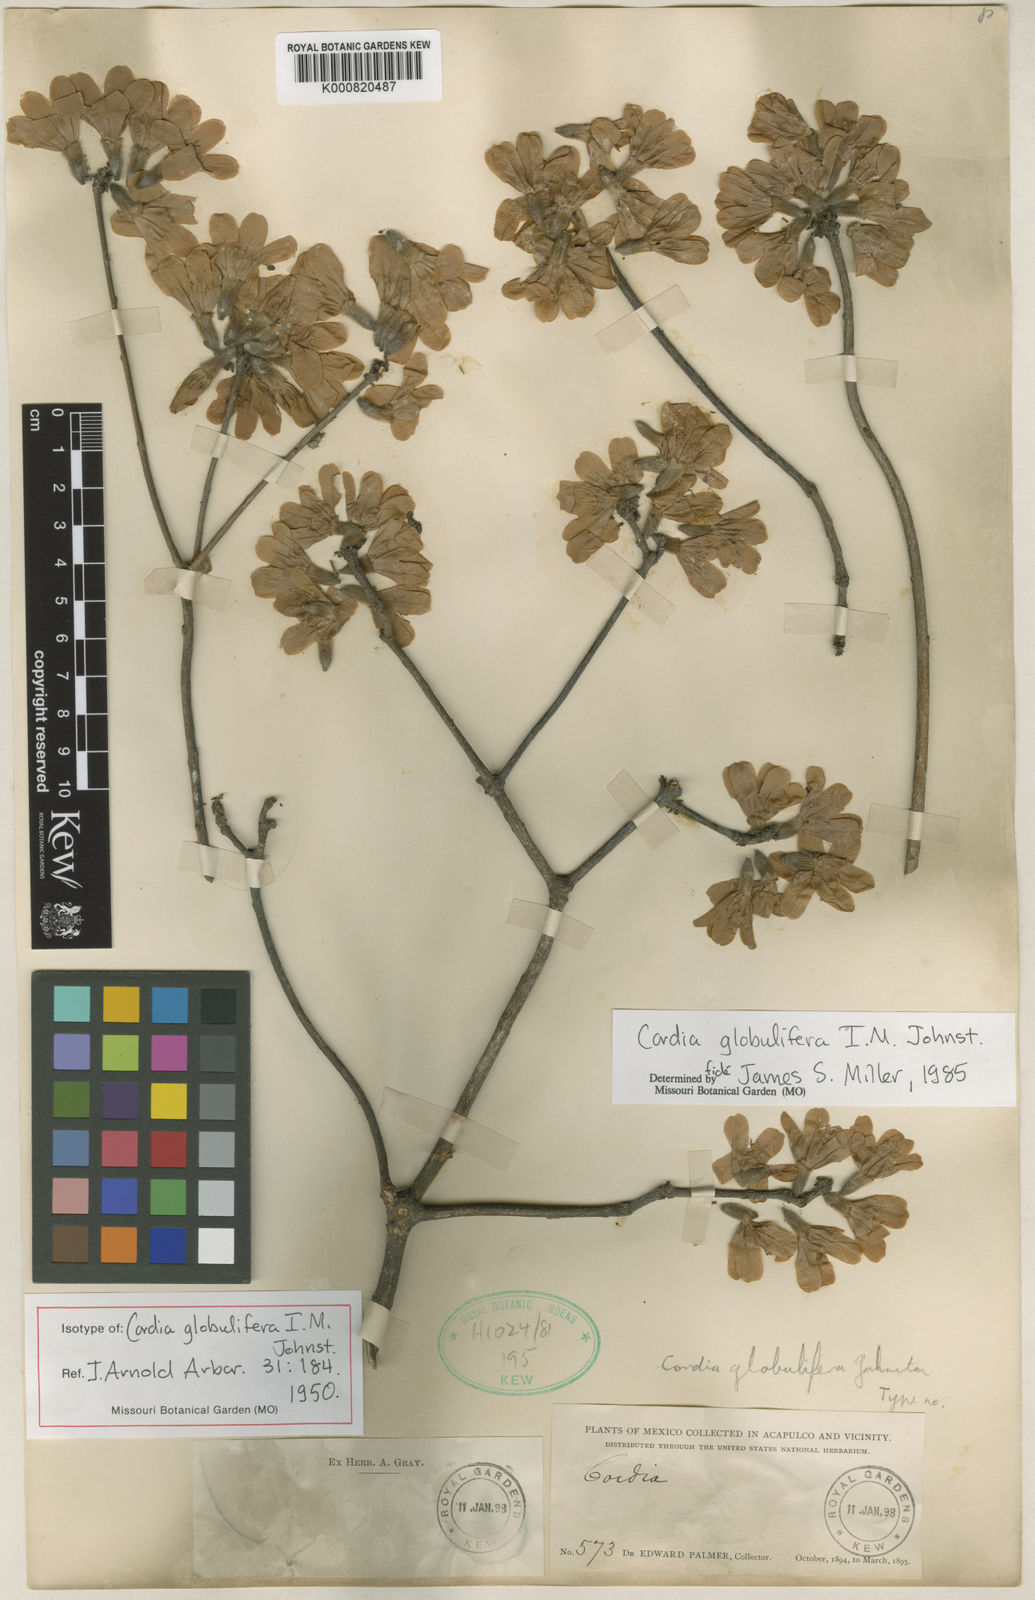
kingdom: Plantae
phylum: Tracheophyta
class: Magnoliopsida
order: Boraginales
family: Cordiaceae
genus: Cordia
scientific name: Cordia globulifera
